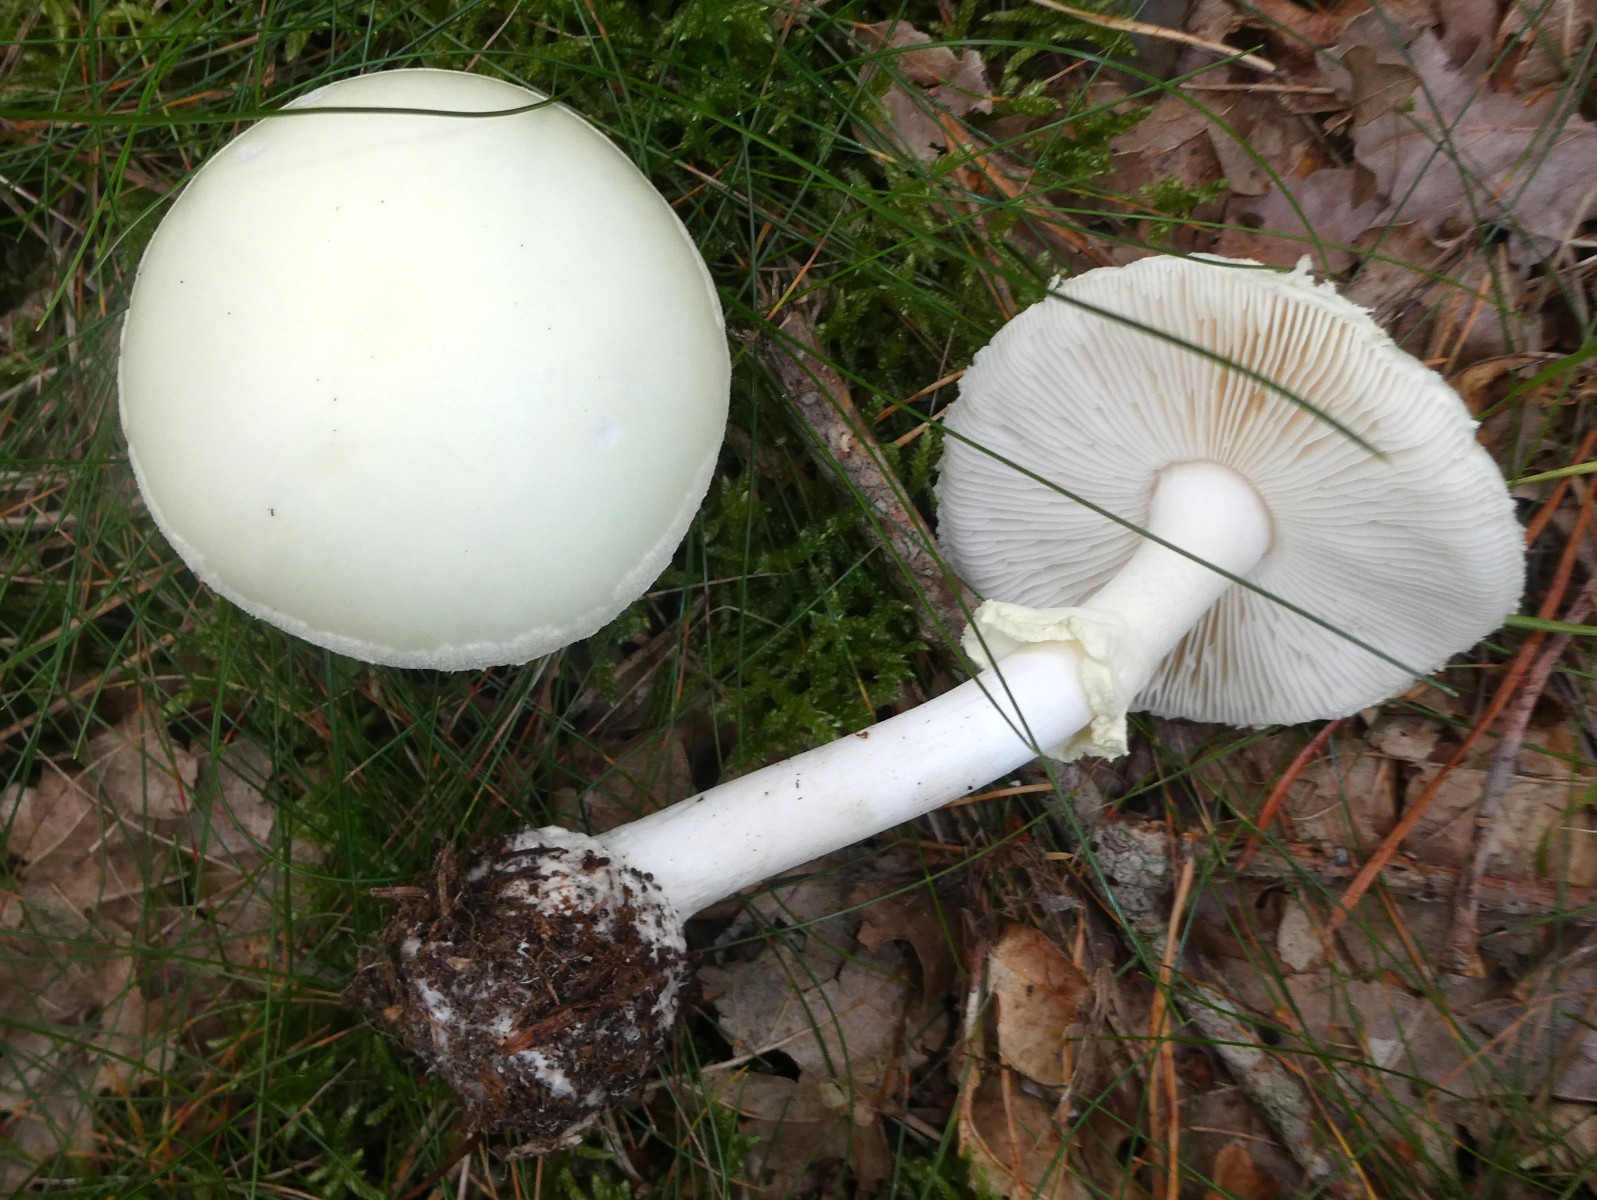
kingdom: Fungi
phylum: Basidiomycota
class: Agaricomycetes
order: Agaricales
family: Amanitaceae
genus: Amanita
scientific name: Amanita citrina
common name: kugleknoldet fluesvamp
